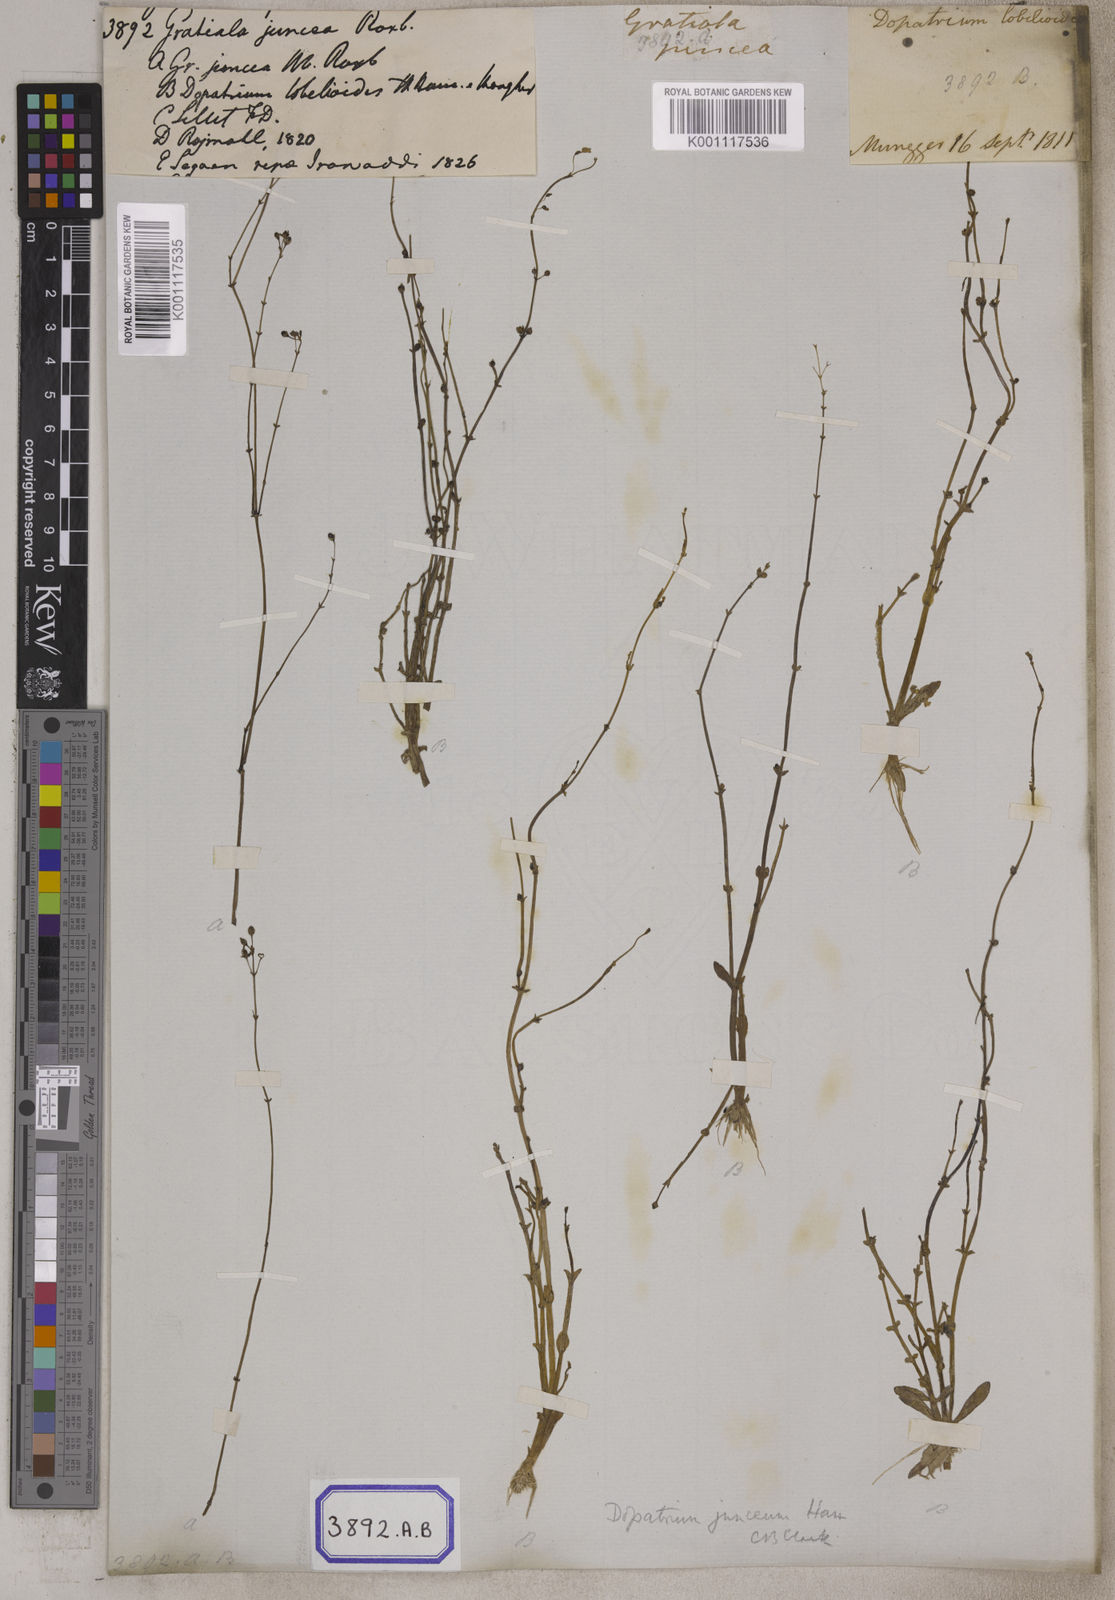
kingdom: Plantae
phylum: Tracheophyta
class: Magnoliopsida
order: Lamiales
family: Plantaginaceae
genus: Dopatrium
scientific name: Dopatrium junceum
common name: Horsefly's eye
